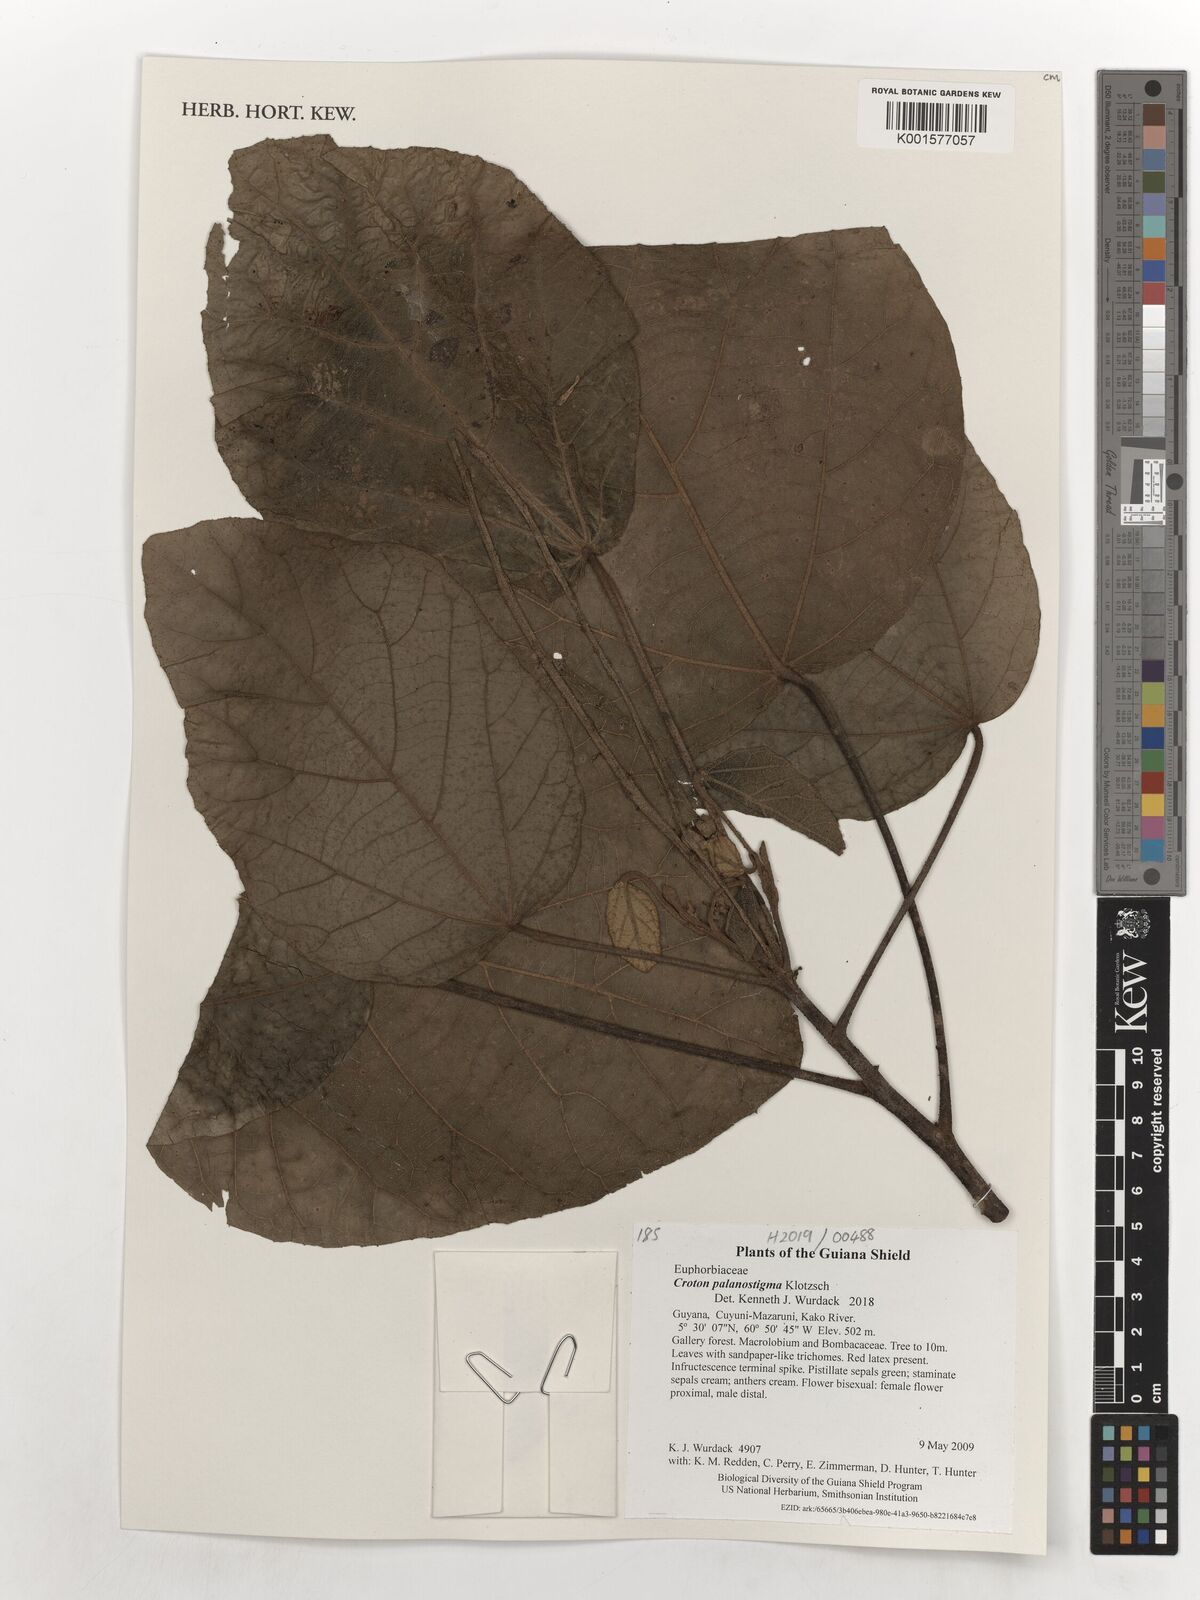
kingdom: Plantae
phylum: Tracheophyta
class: Magnoliopsida
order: Malpighiales
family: Euphorbiaceae
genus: Croton
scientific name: Croton palanostigma
